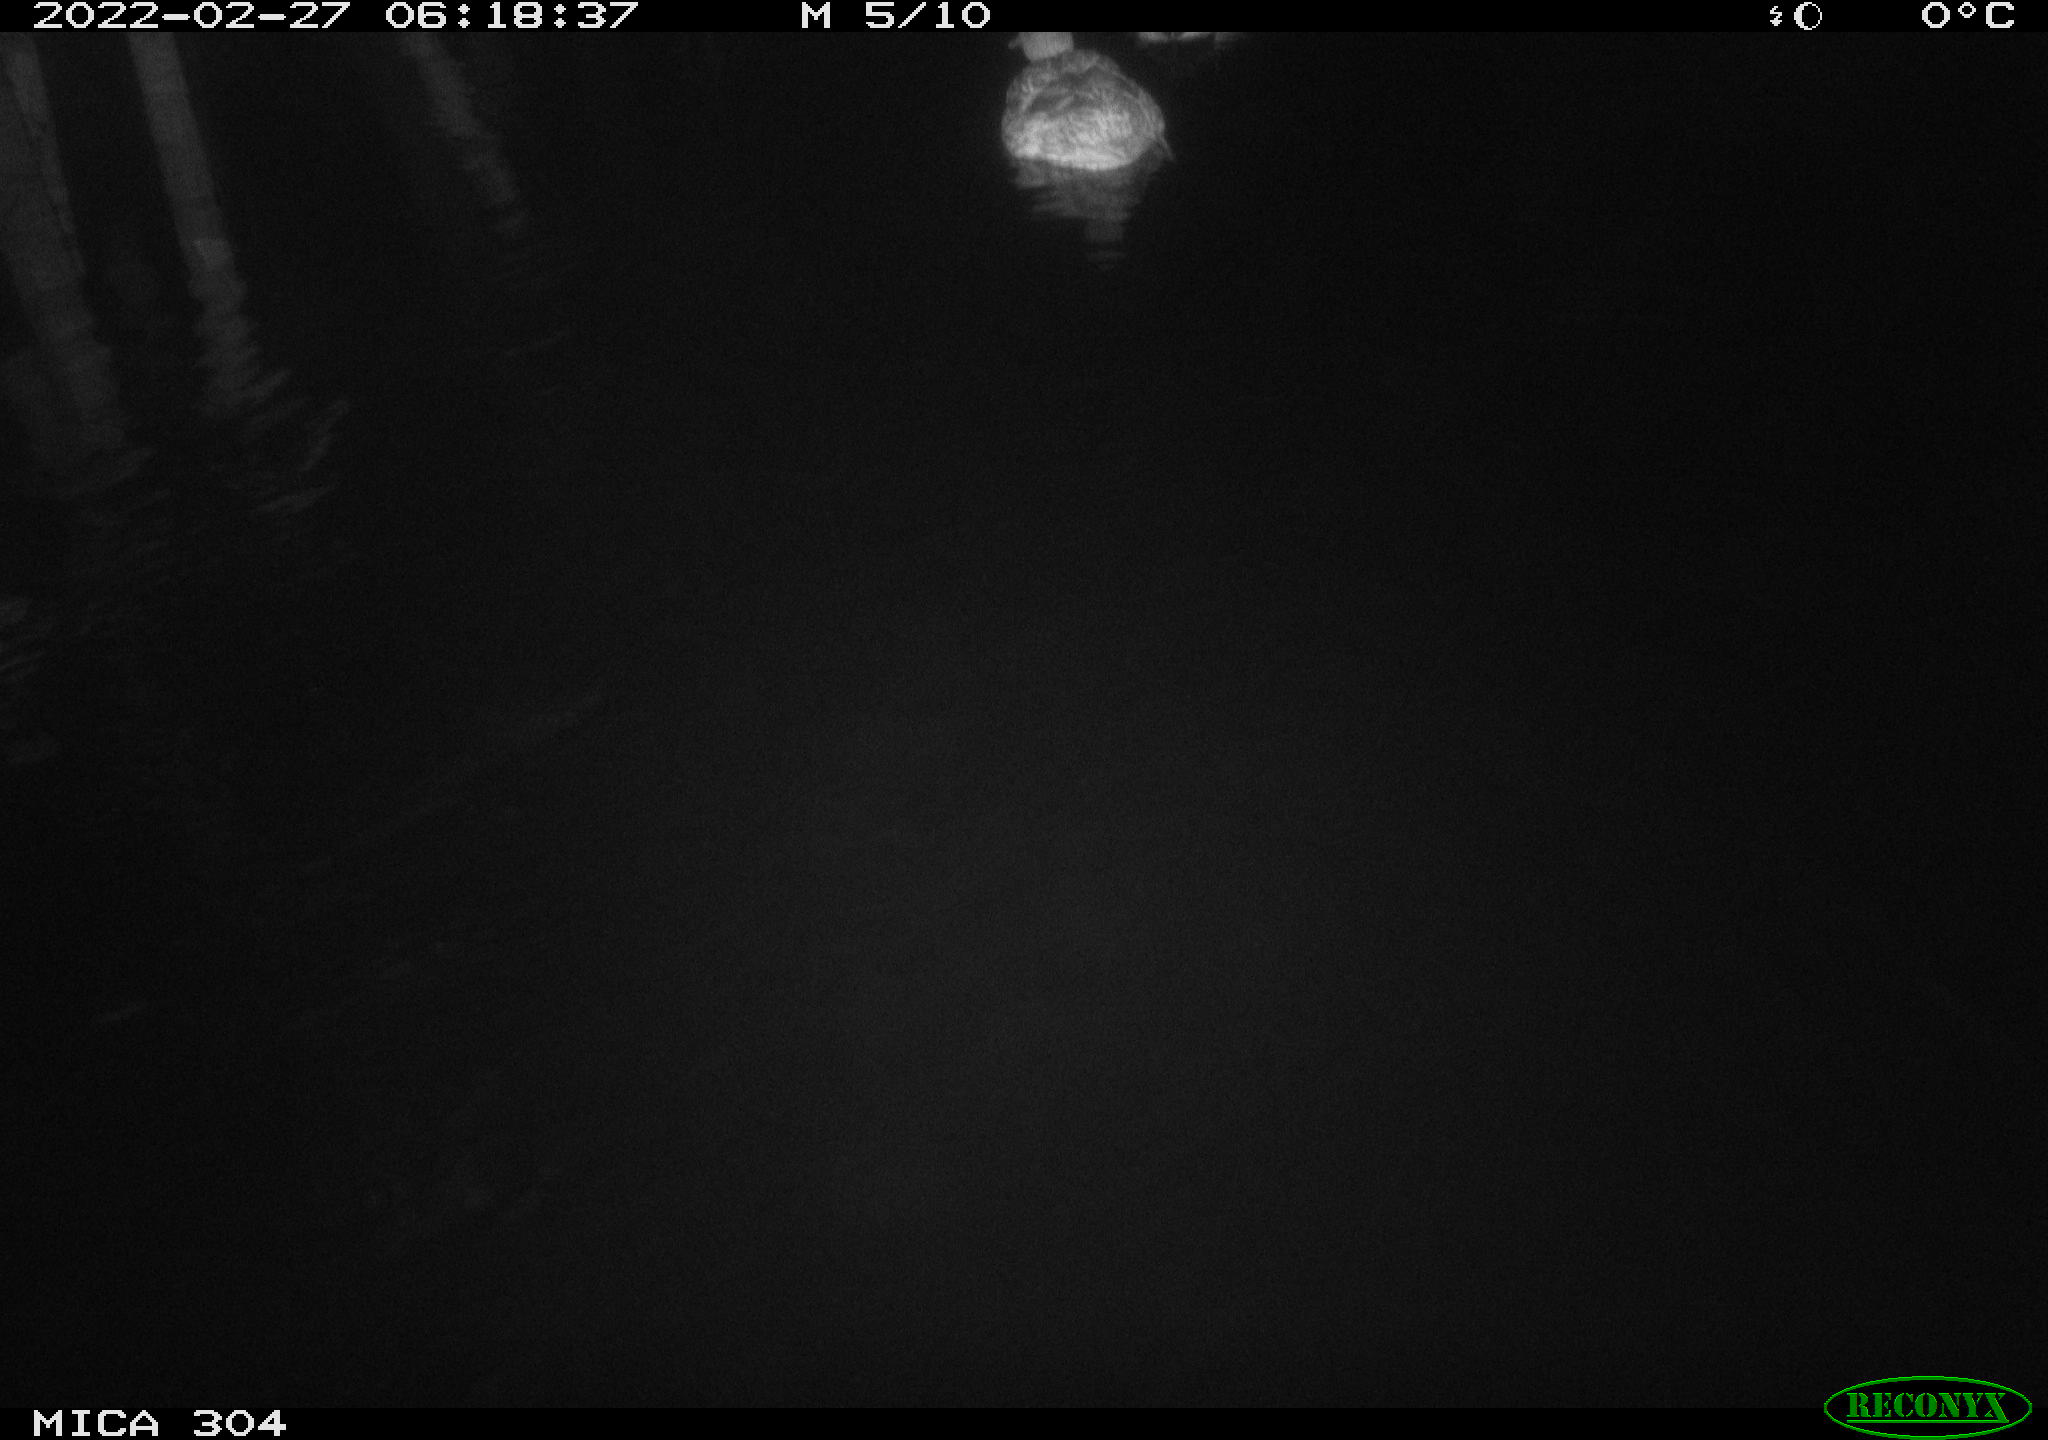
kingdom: Animalia
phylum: Chordata
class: Aves
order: Anseriformes
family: Anatidae
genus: Anas
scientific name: Anas platyrhynchos
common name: Mallard
